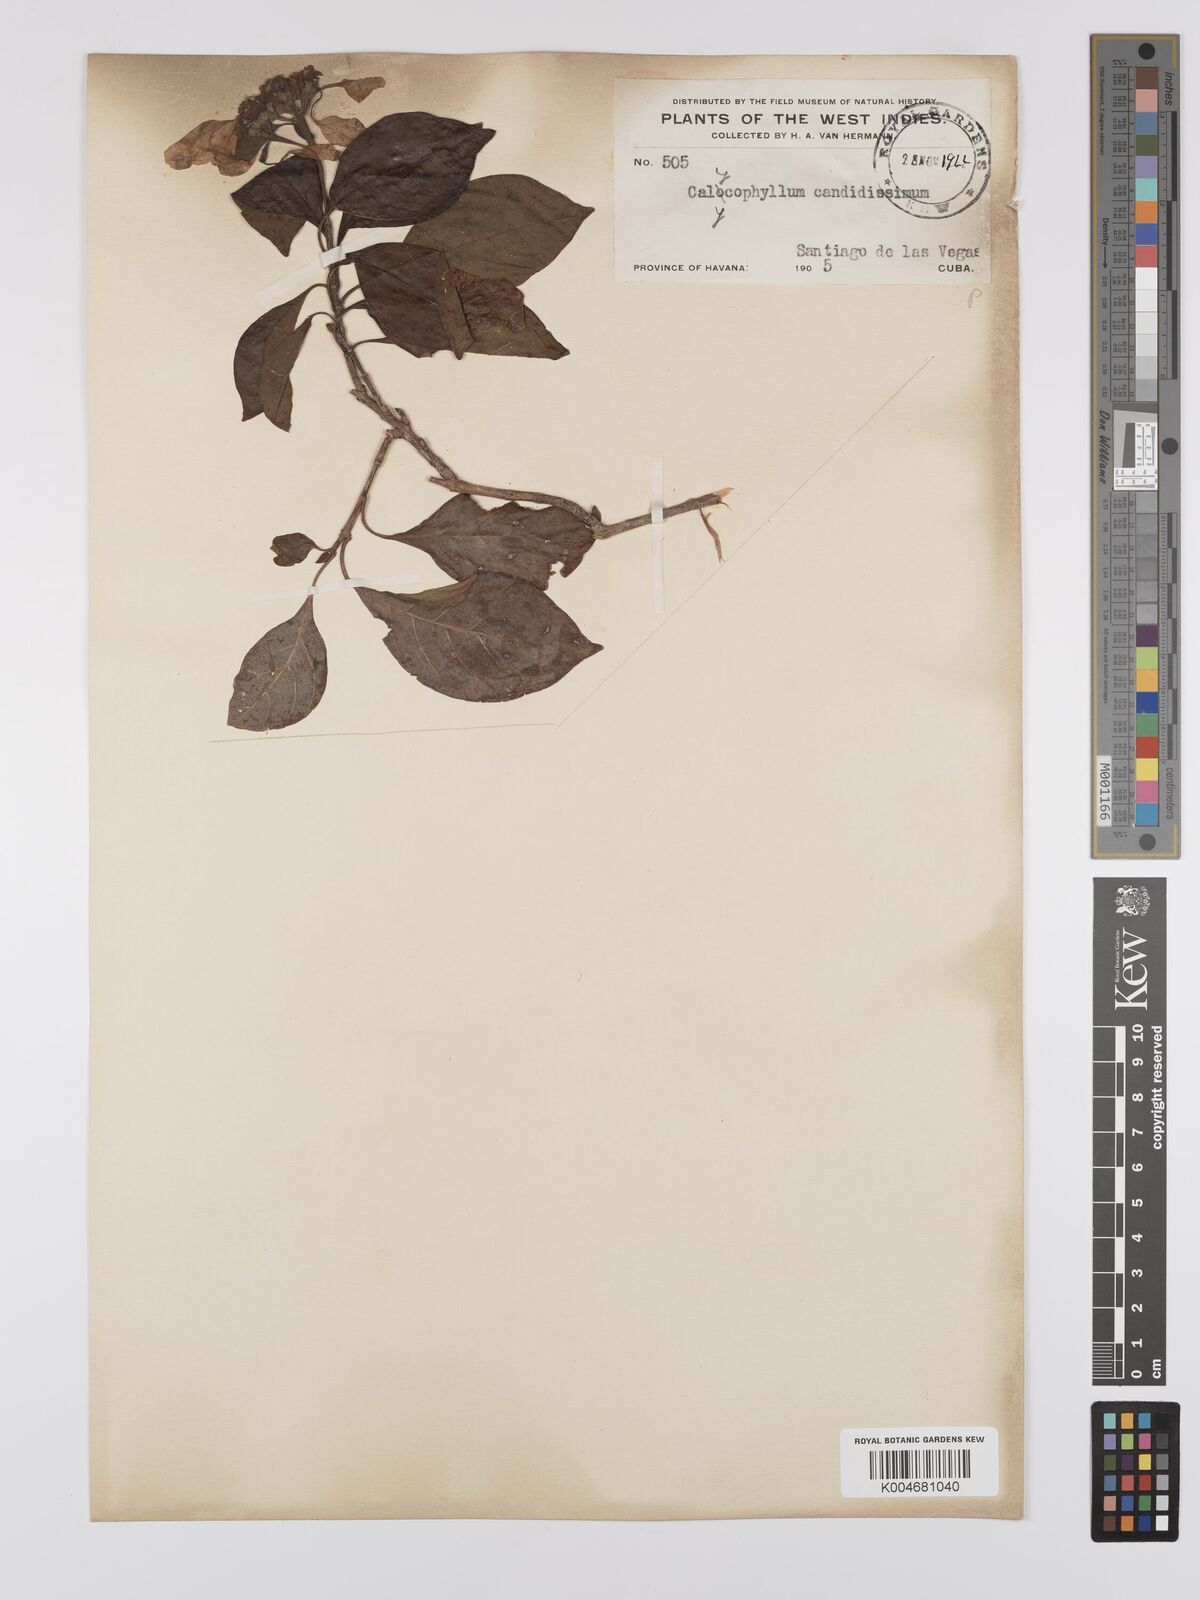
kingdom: Plantae
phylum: Tracheophyta
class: Magnoliopsida
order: Gentianales
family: Rubiaceae
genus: Calycophyllum
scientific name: Calycophyllum candidissimum
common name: Dagame
